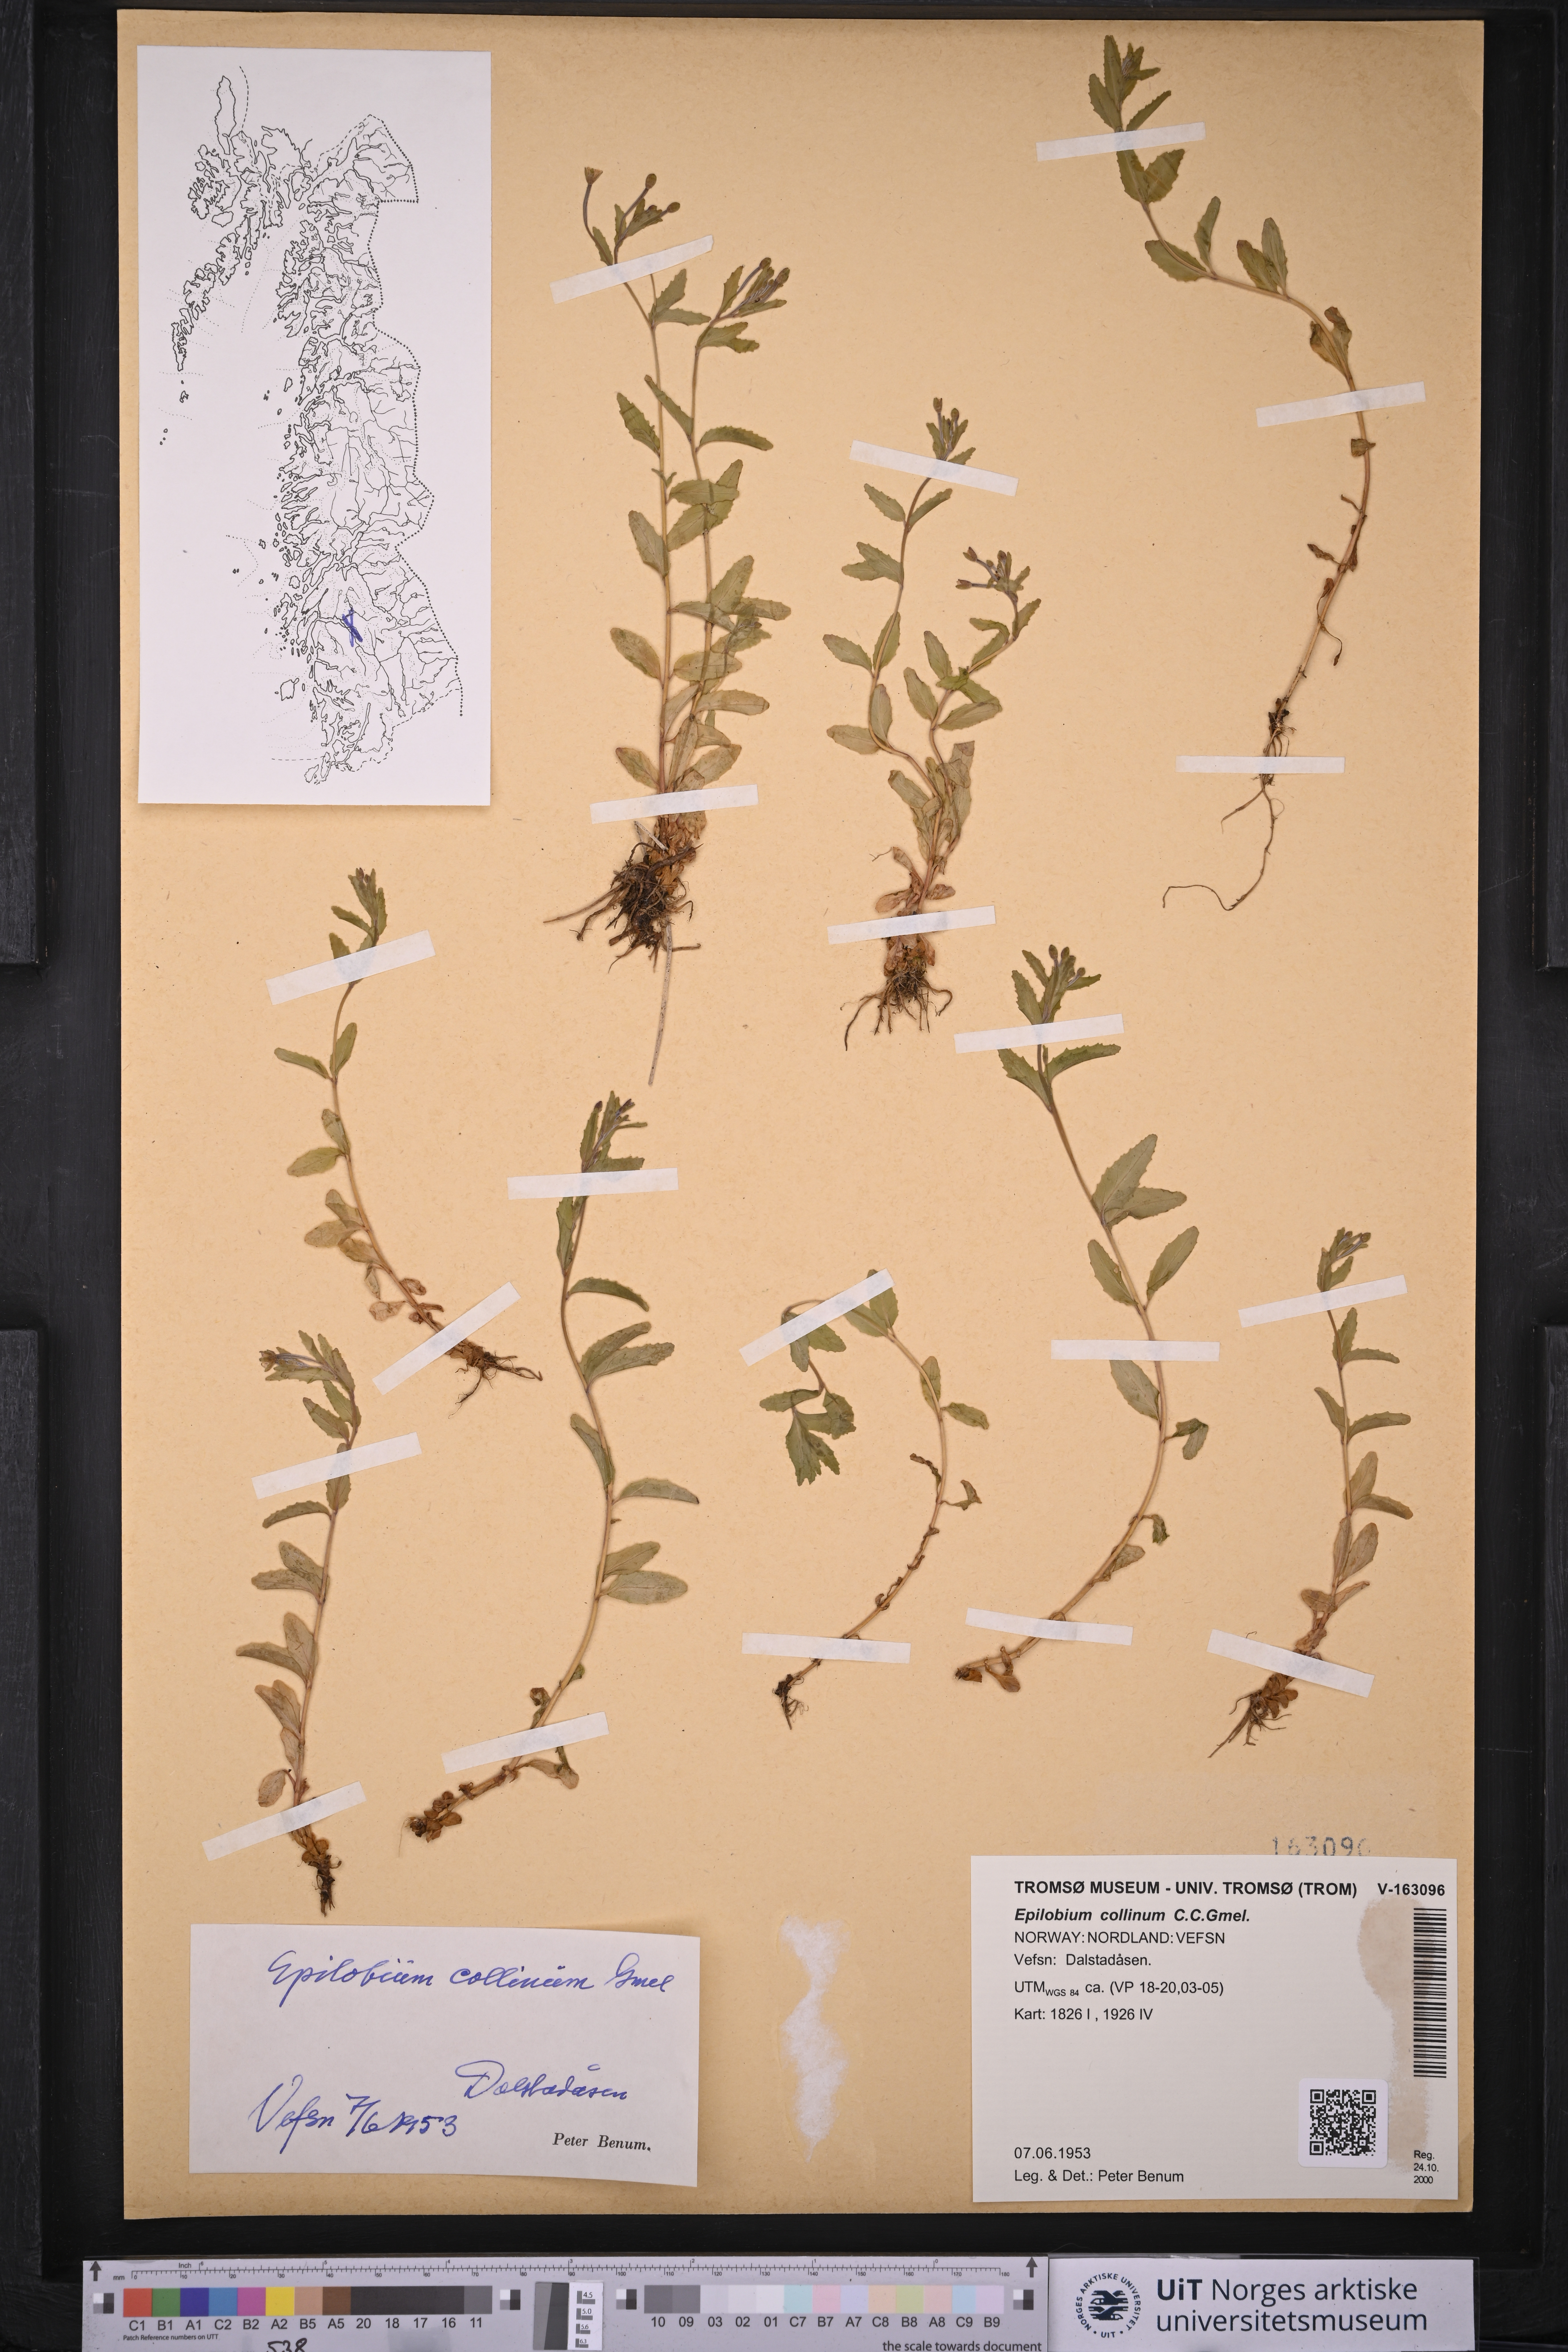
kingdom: Plantae
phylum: Tracheophyta
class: Magnoliopsida
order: Myrtales
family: Onagraceae
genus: Epilobium
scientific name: Epilobium collinum
